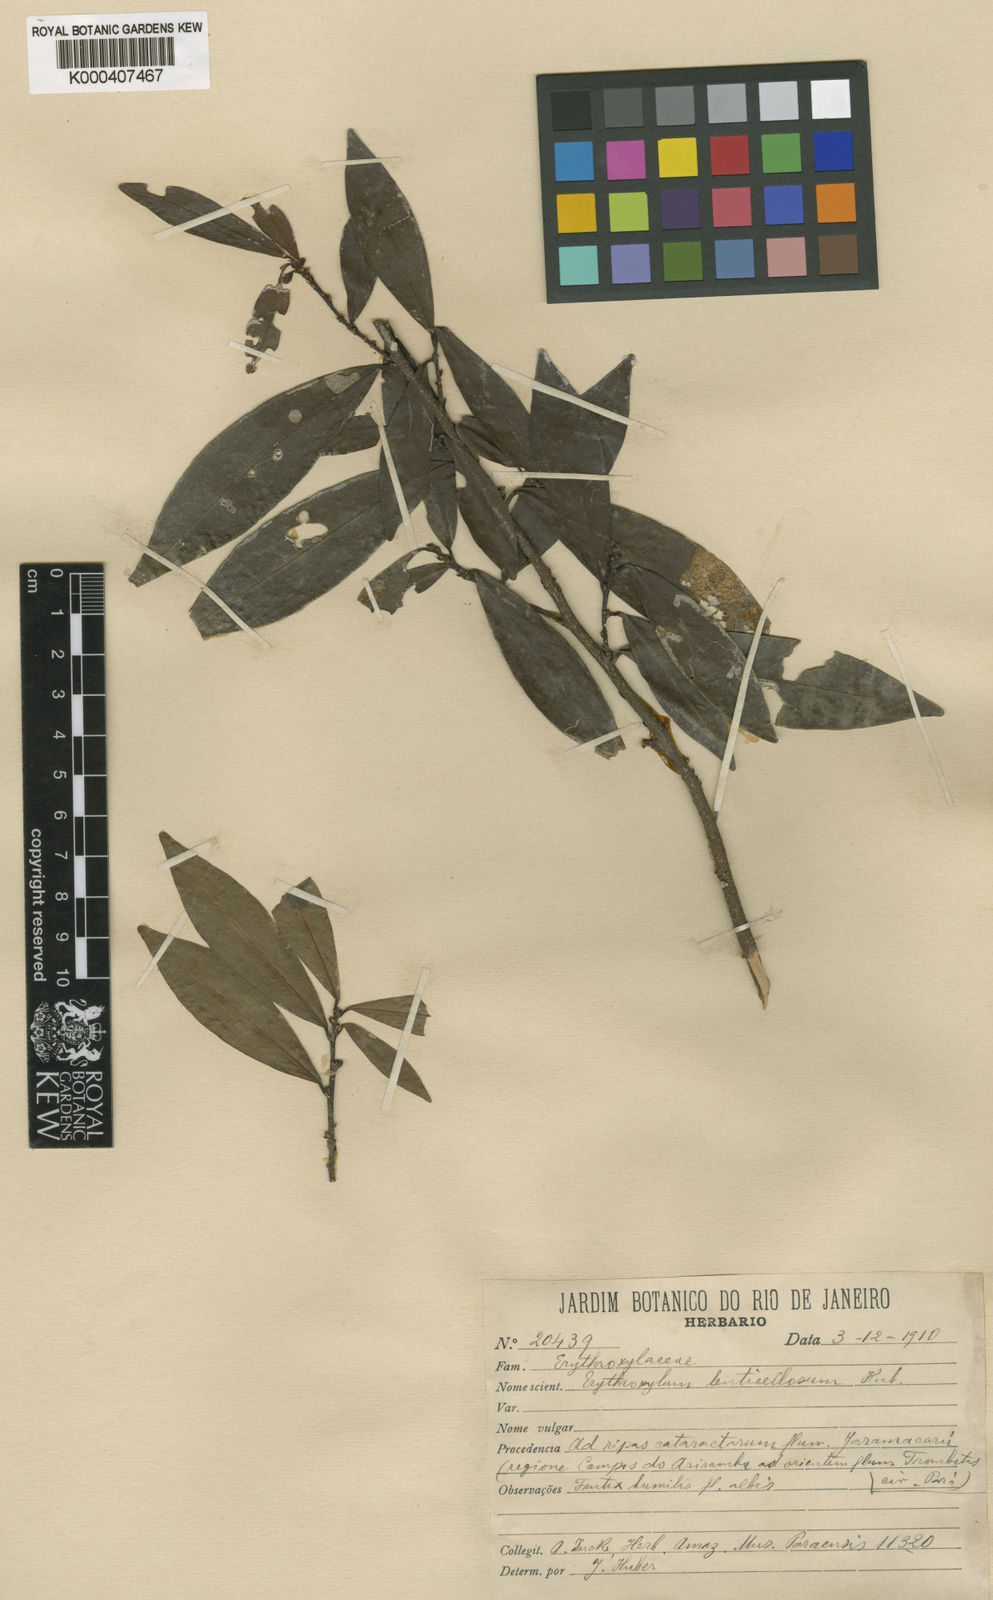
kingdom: Plantae
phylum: Tracheophyta
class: Magnoliopsida
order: Malpighiales
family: Erythroxylaceae
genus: Erythroxylum
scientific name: Erythroxylum lenticellosum
